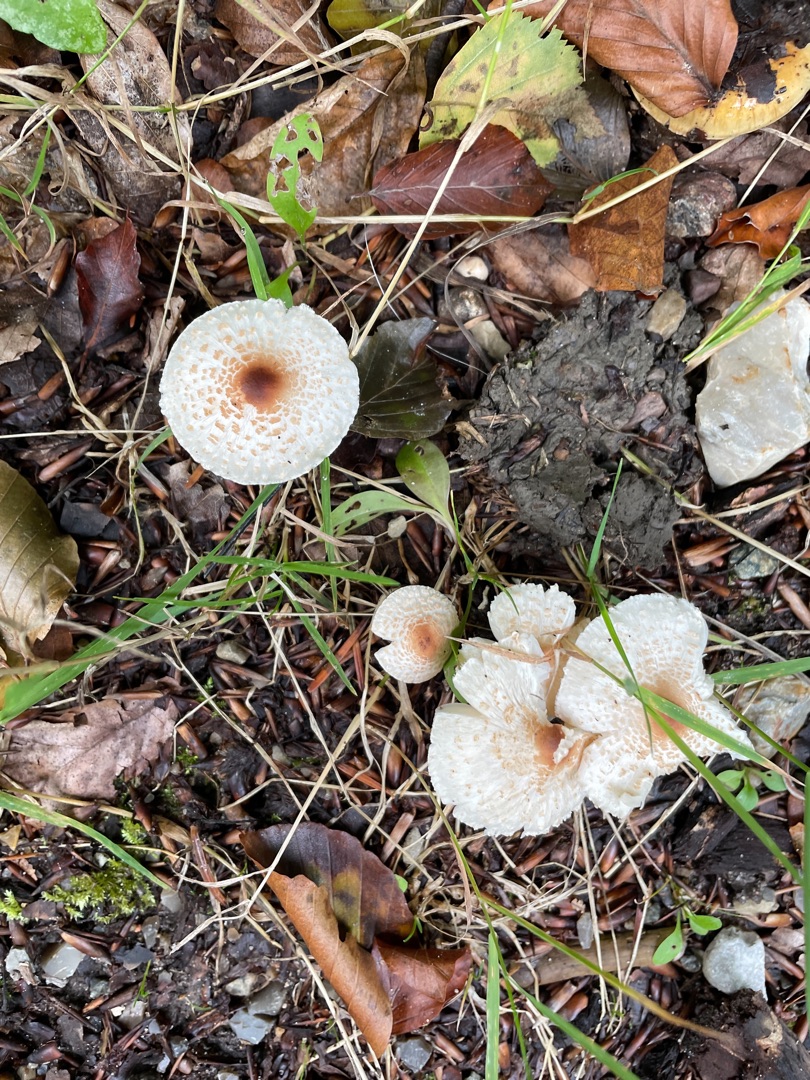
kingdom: Fungi
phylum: Basidiomycota
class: Agaricomycetes
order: Agaricales
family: Agaricaceae
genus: Lepiota
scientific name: Lepiota cristata
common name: Stinkende parasolhat
